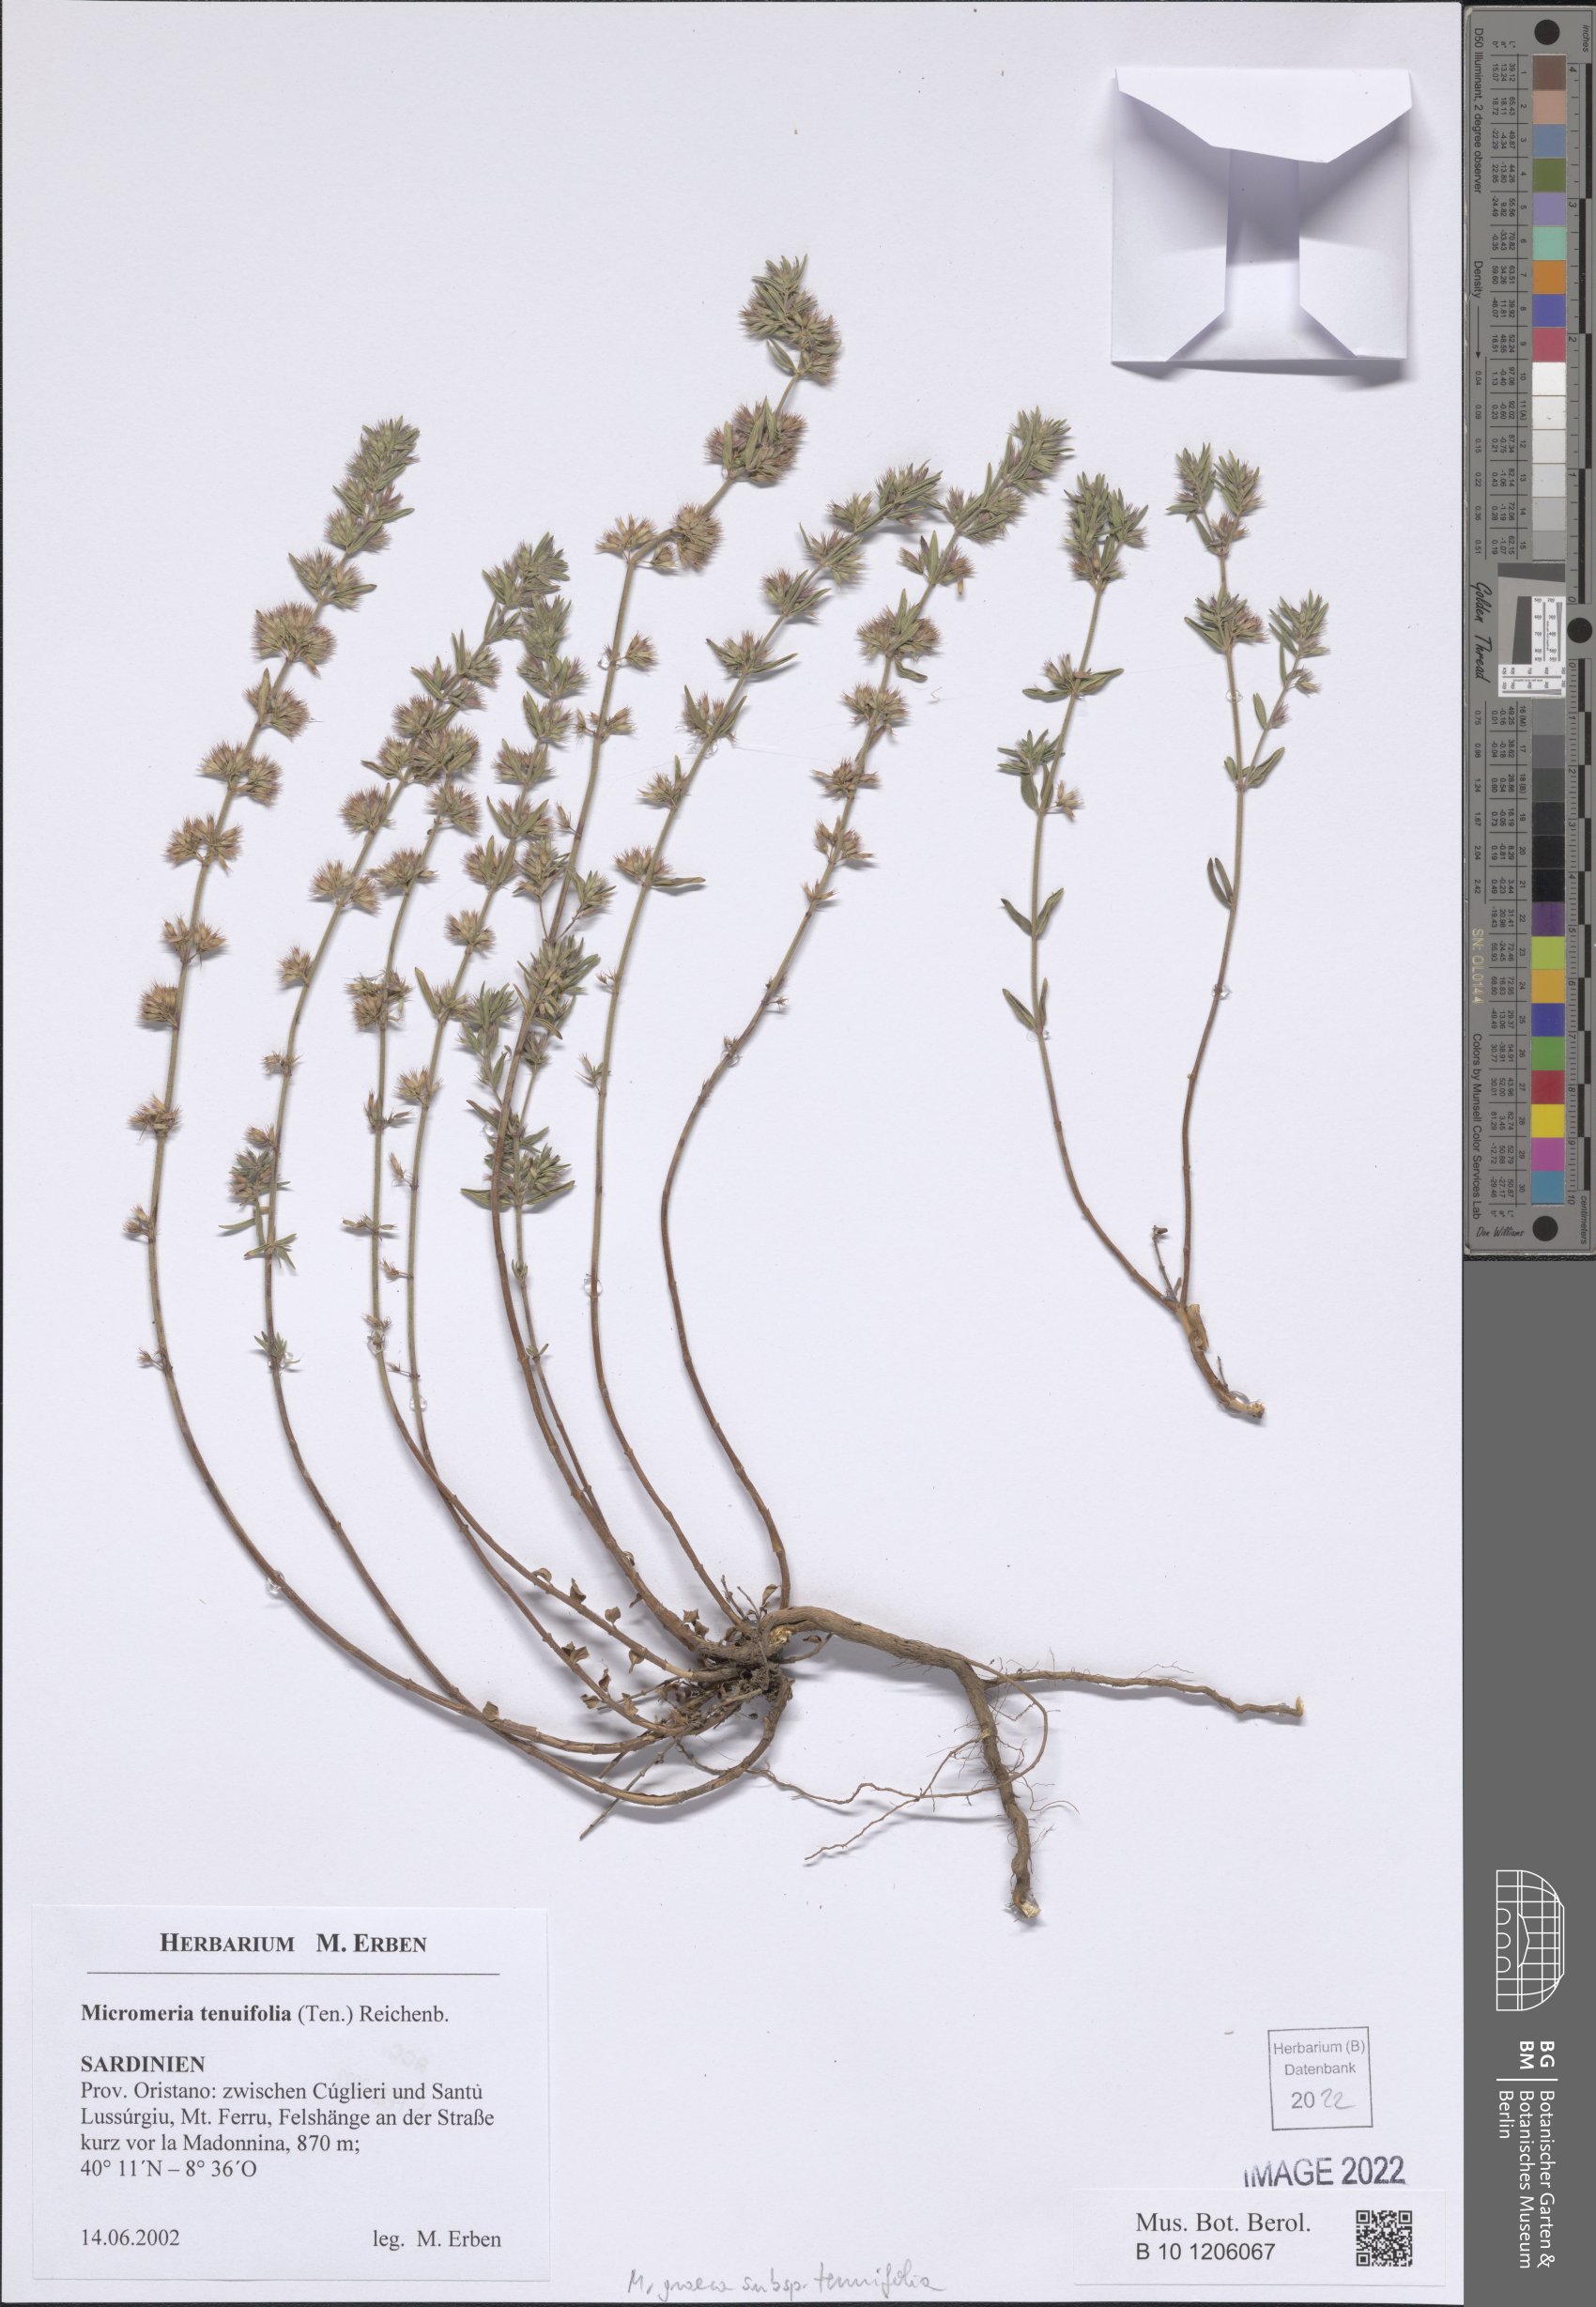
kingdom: Plantae
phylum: Tracheophyta
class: Magnoliopsida
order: Lamiales
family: Lamiaceae
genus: Micromeria
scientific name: Micromeria graeca
